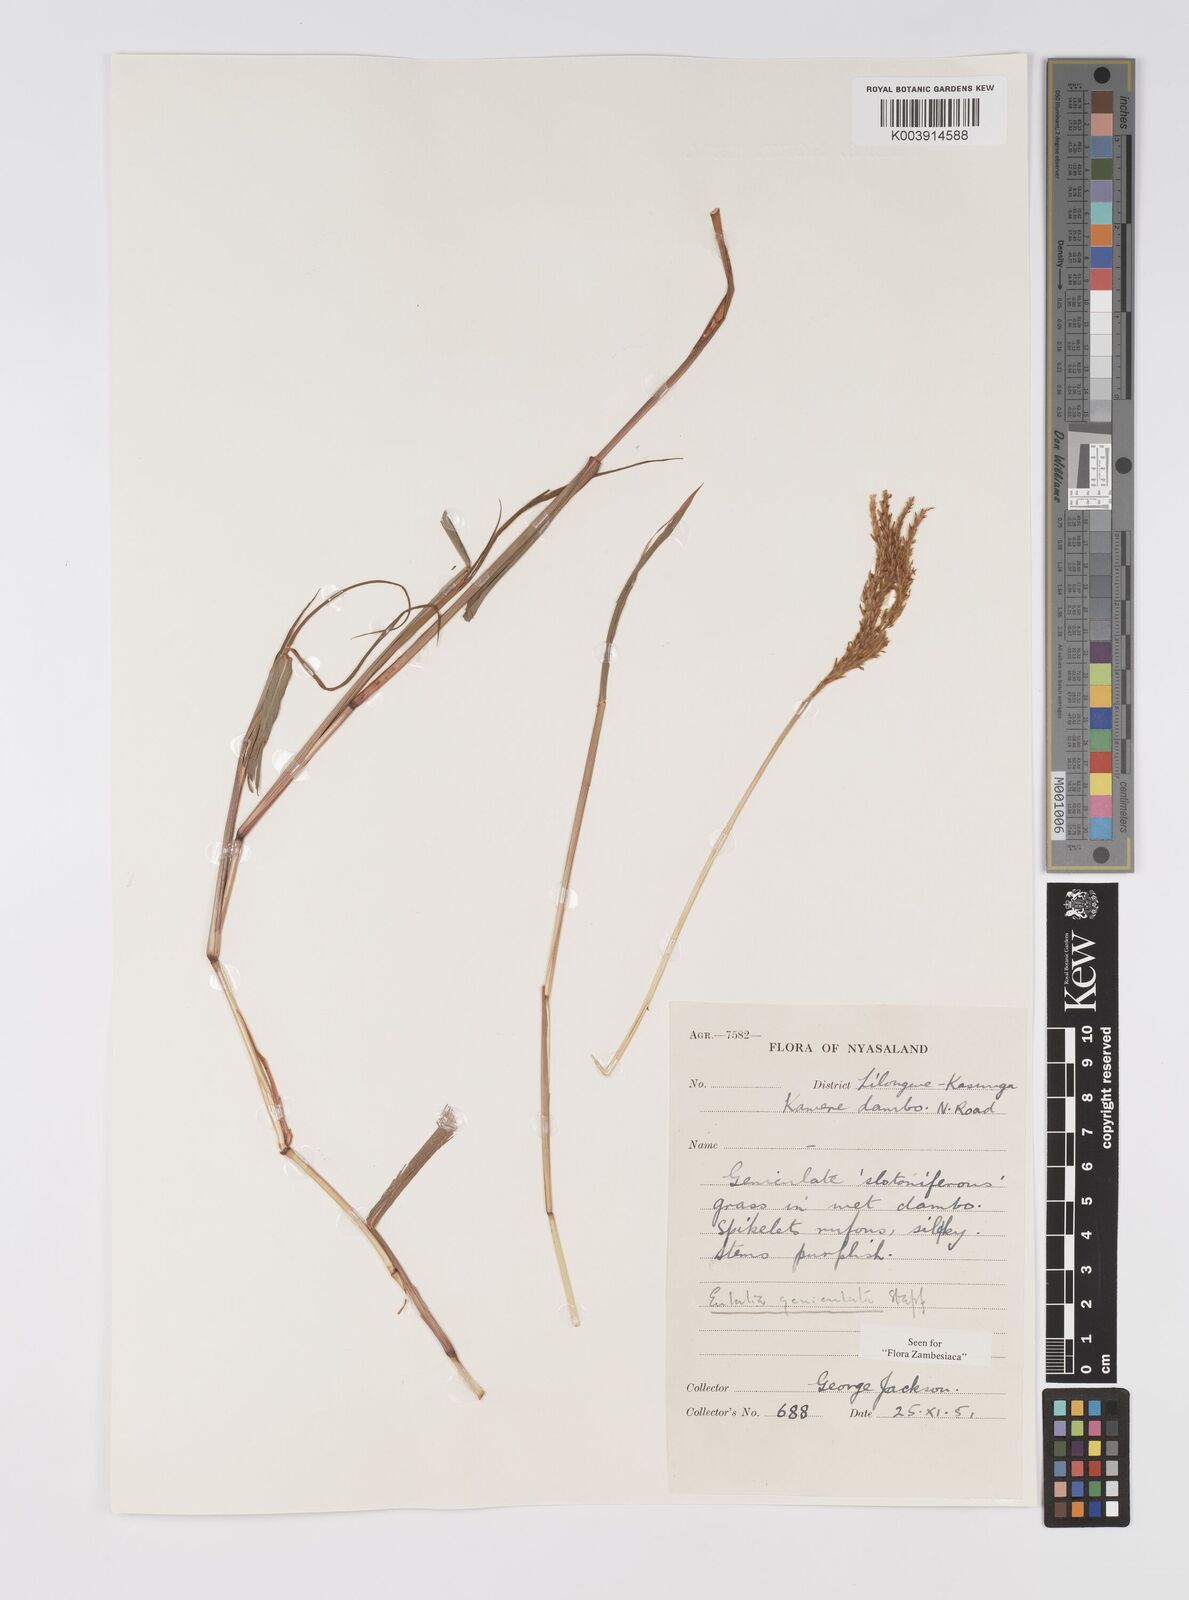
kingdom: Plantae
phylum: Tracheophyta
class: Liliopsida
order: Poales
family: Poaceae
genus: Eulalia
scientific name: Eulalia aurea
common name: Silky browntop
